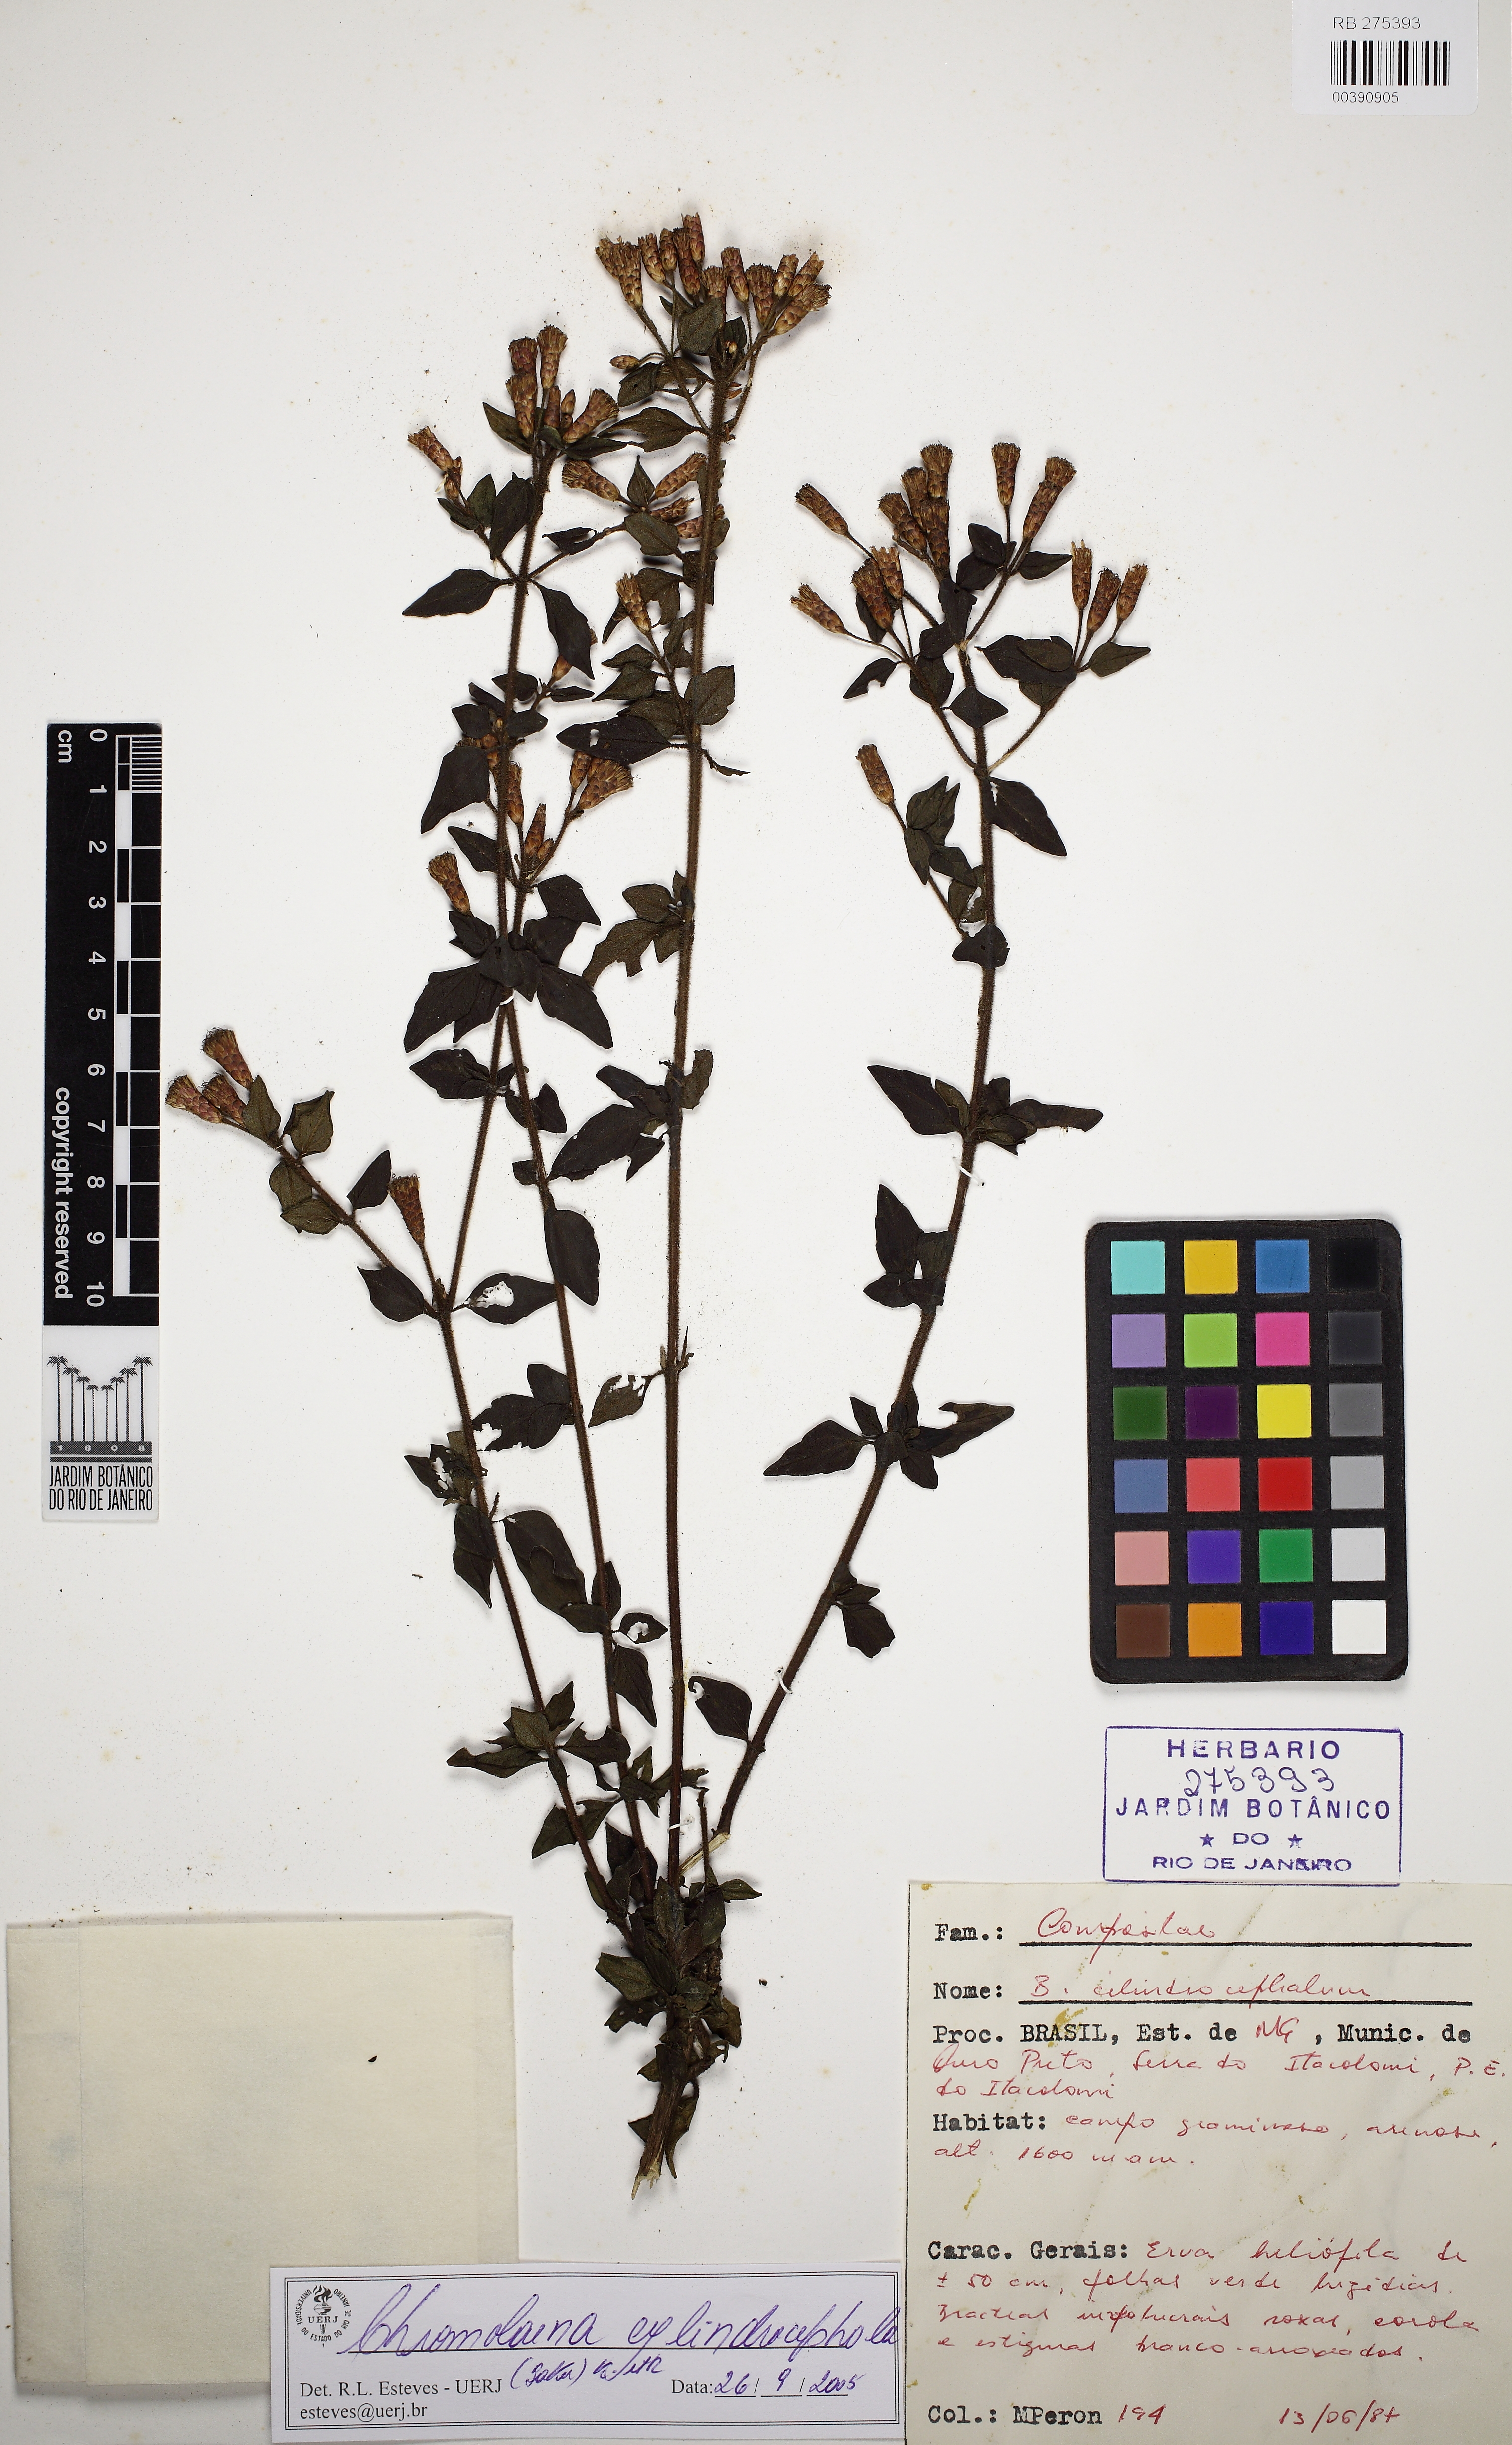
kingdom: Plantae
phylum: Tracheophyta
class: Magnoliopsida
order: Asterales
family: Asteraceae
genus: Chromolaena
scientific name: Chromolaena cylindrocephala
